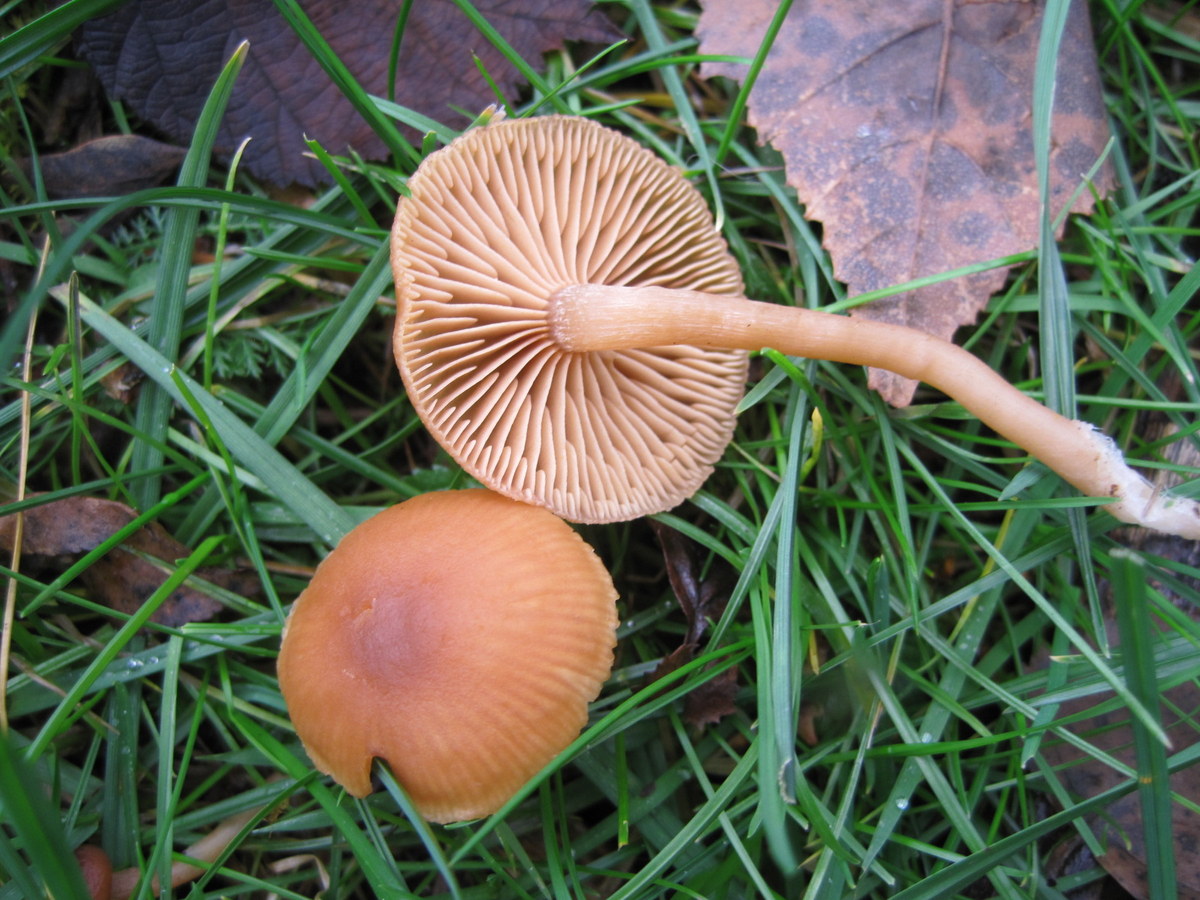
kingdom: Fungi
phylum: Basidiomycota
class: Agaricomycetes
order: Agaricales
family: Tubariaceae
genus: Tubaria
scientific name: Tubaria furfuracea
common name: kliddet fnughat
